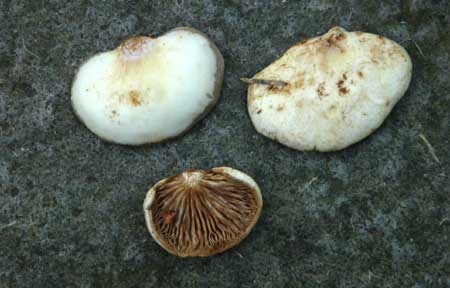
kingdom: Fungi
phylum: Basidiomycota
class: Agaricomycetes
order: Agaricales
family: Crepidotaceae
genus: Crepidotus
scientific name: Crepidotus mollis
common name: blød muslingesvamp
